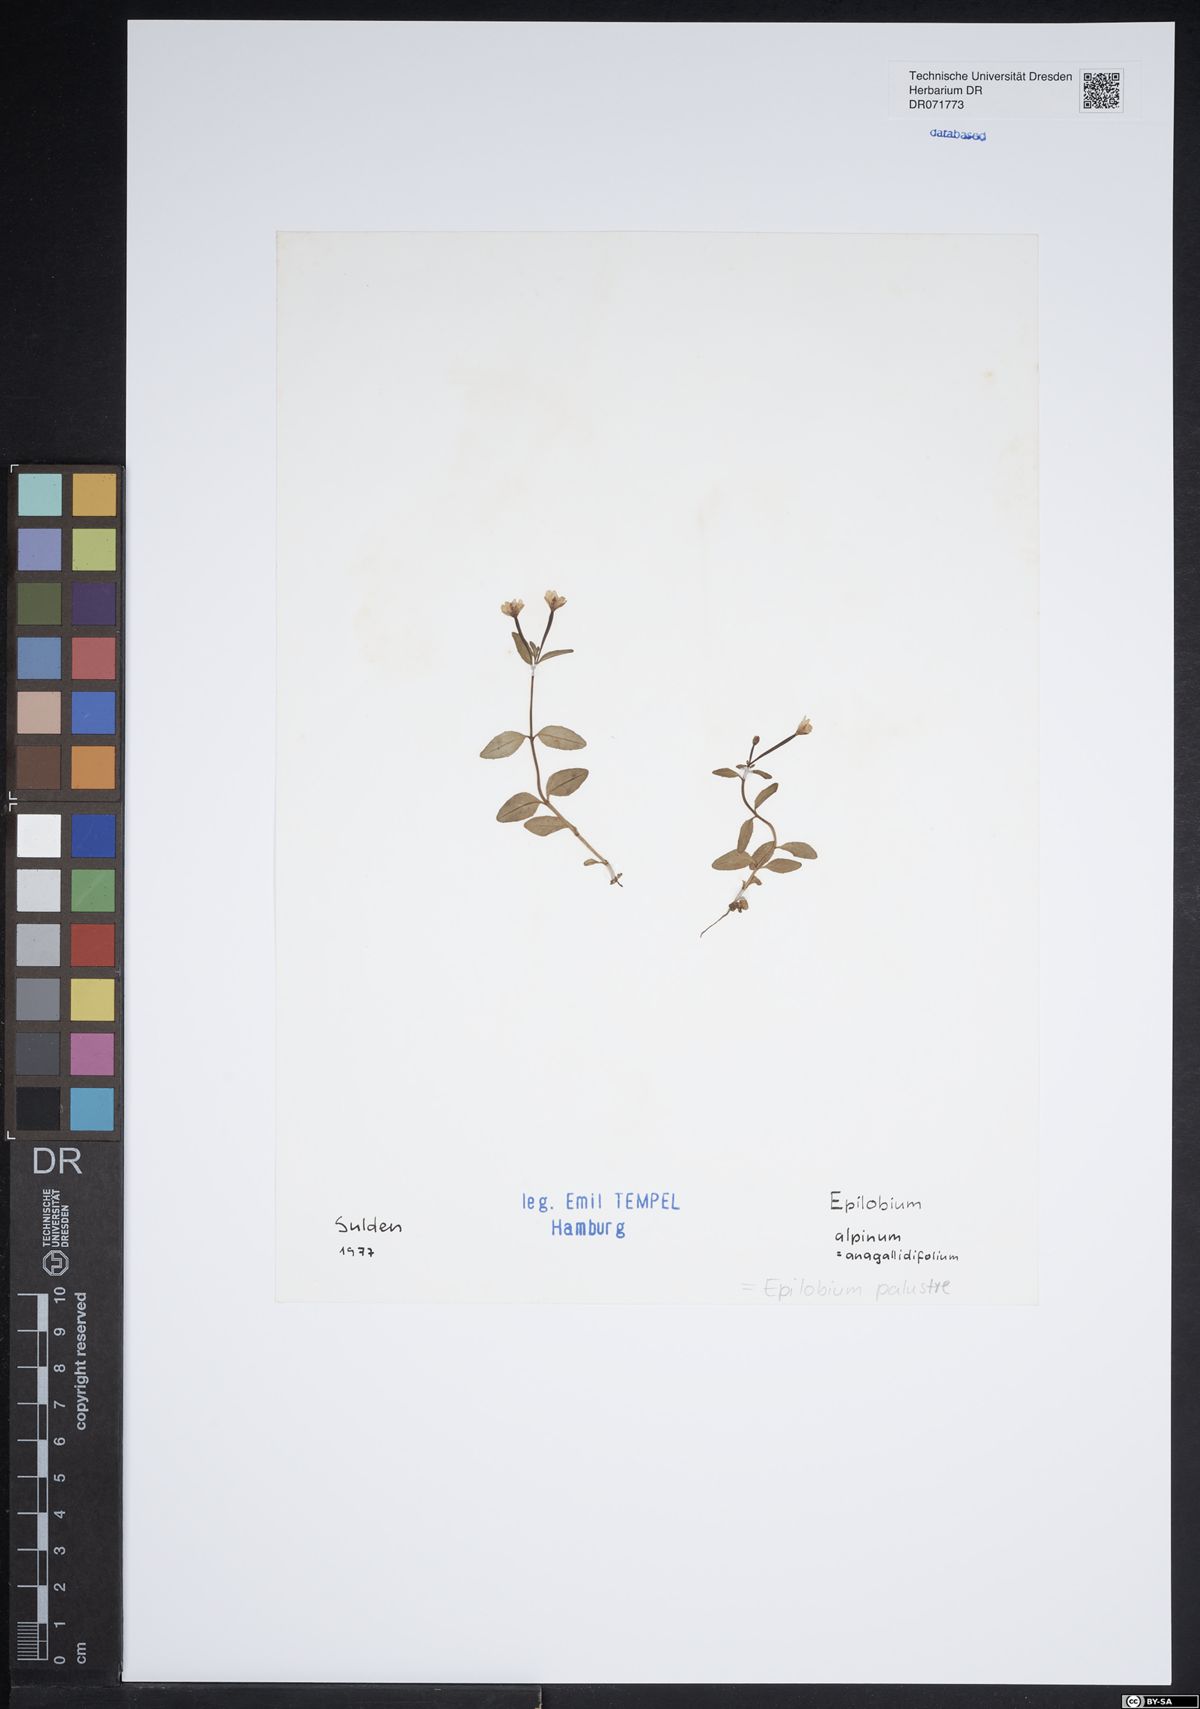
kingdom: Plantae
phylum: Tracheophyta
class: Magnoliopsida
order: Myrtales
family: Onagraceae
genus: Epilobium
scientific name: Epilobium palustre
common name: Marsh willowherb
